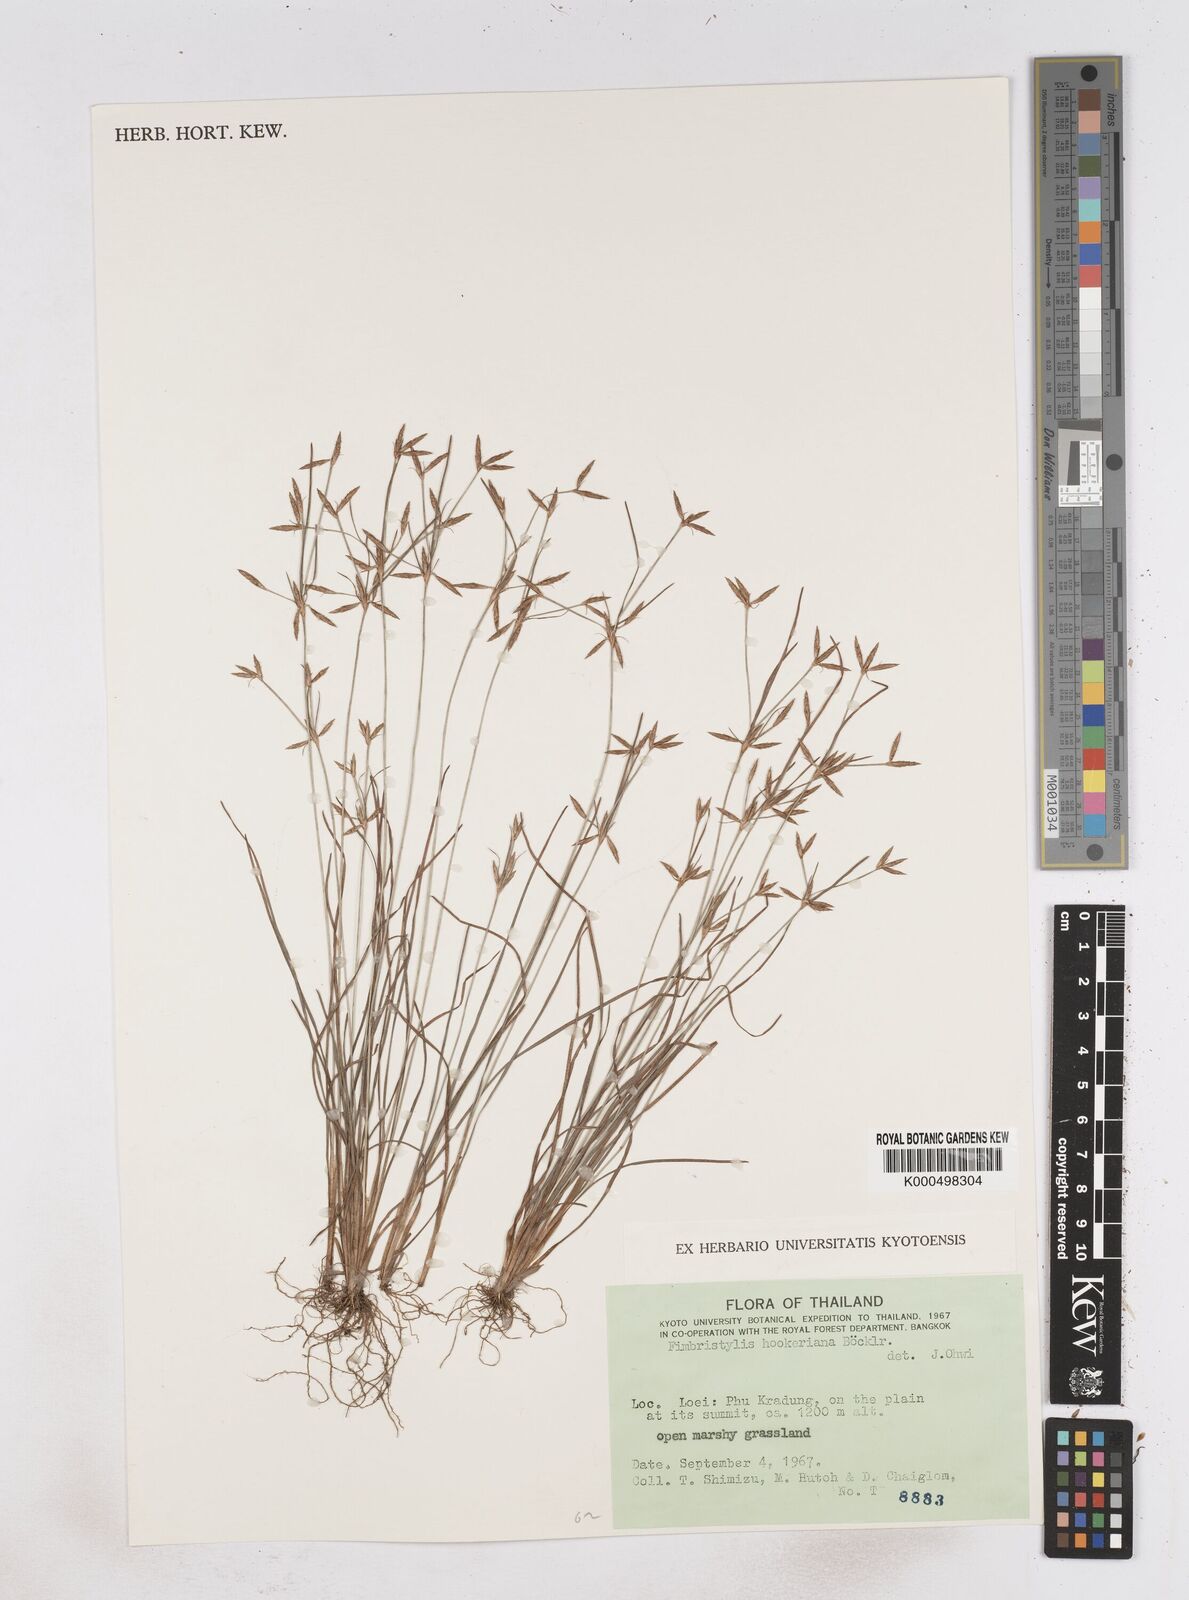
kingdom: Plantae
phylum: Tracheophyta
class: Liliopsida
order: Poales
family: Cyperaceae
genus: Fimbristylis
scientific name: Fimbristylis hookeriana
